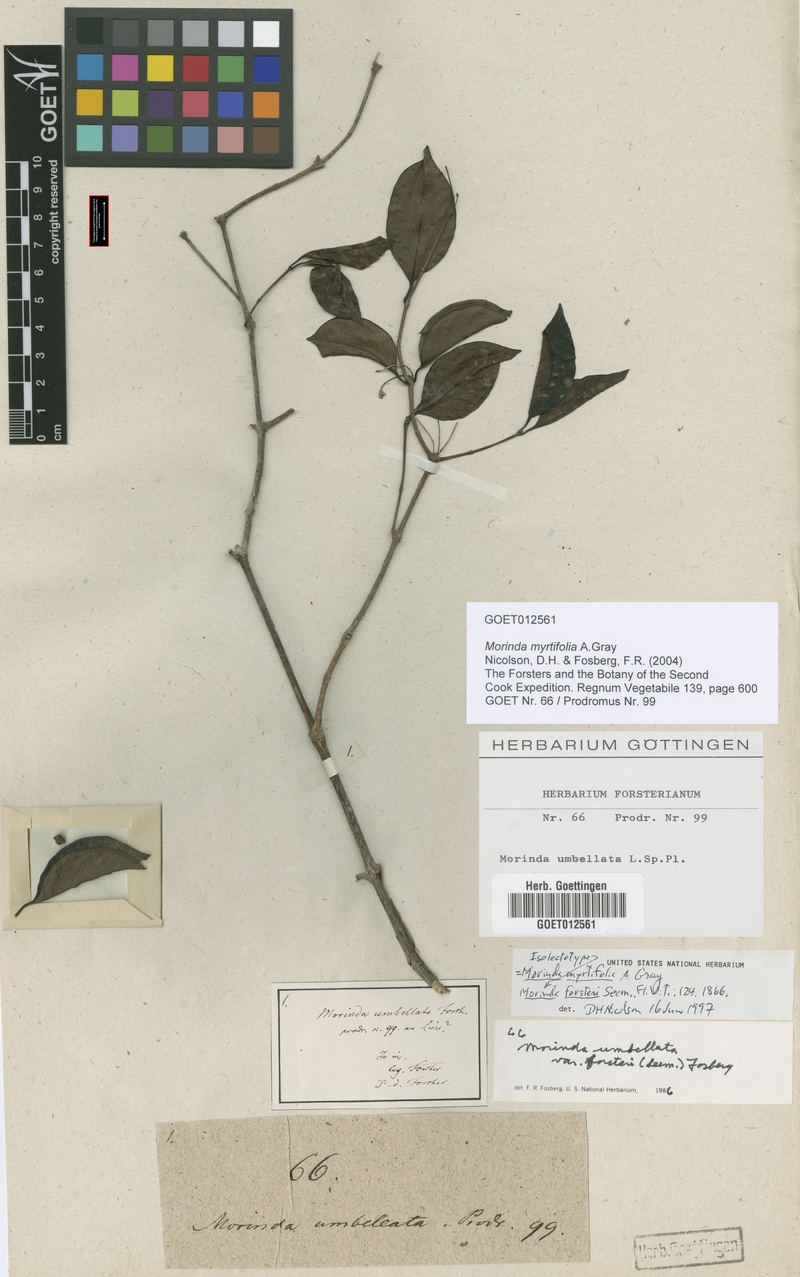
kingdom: Plantae
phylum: Tracheophyta
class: Magnoliopsida
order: Gentianales
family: Rubiaceae
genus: Gynochthodes
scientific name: Gynochthodes myrtifolia
